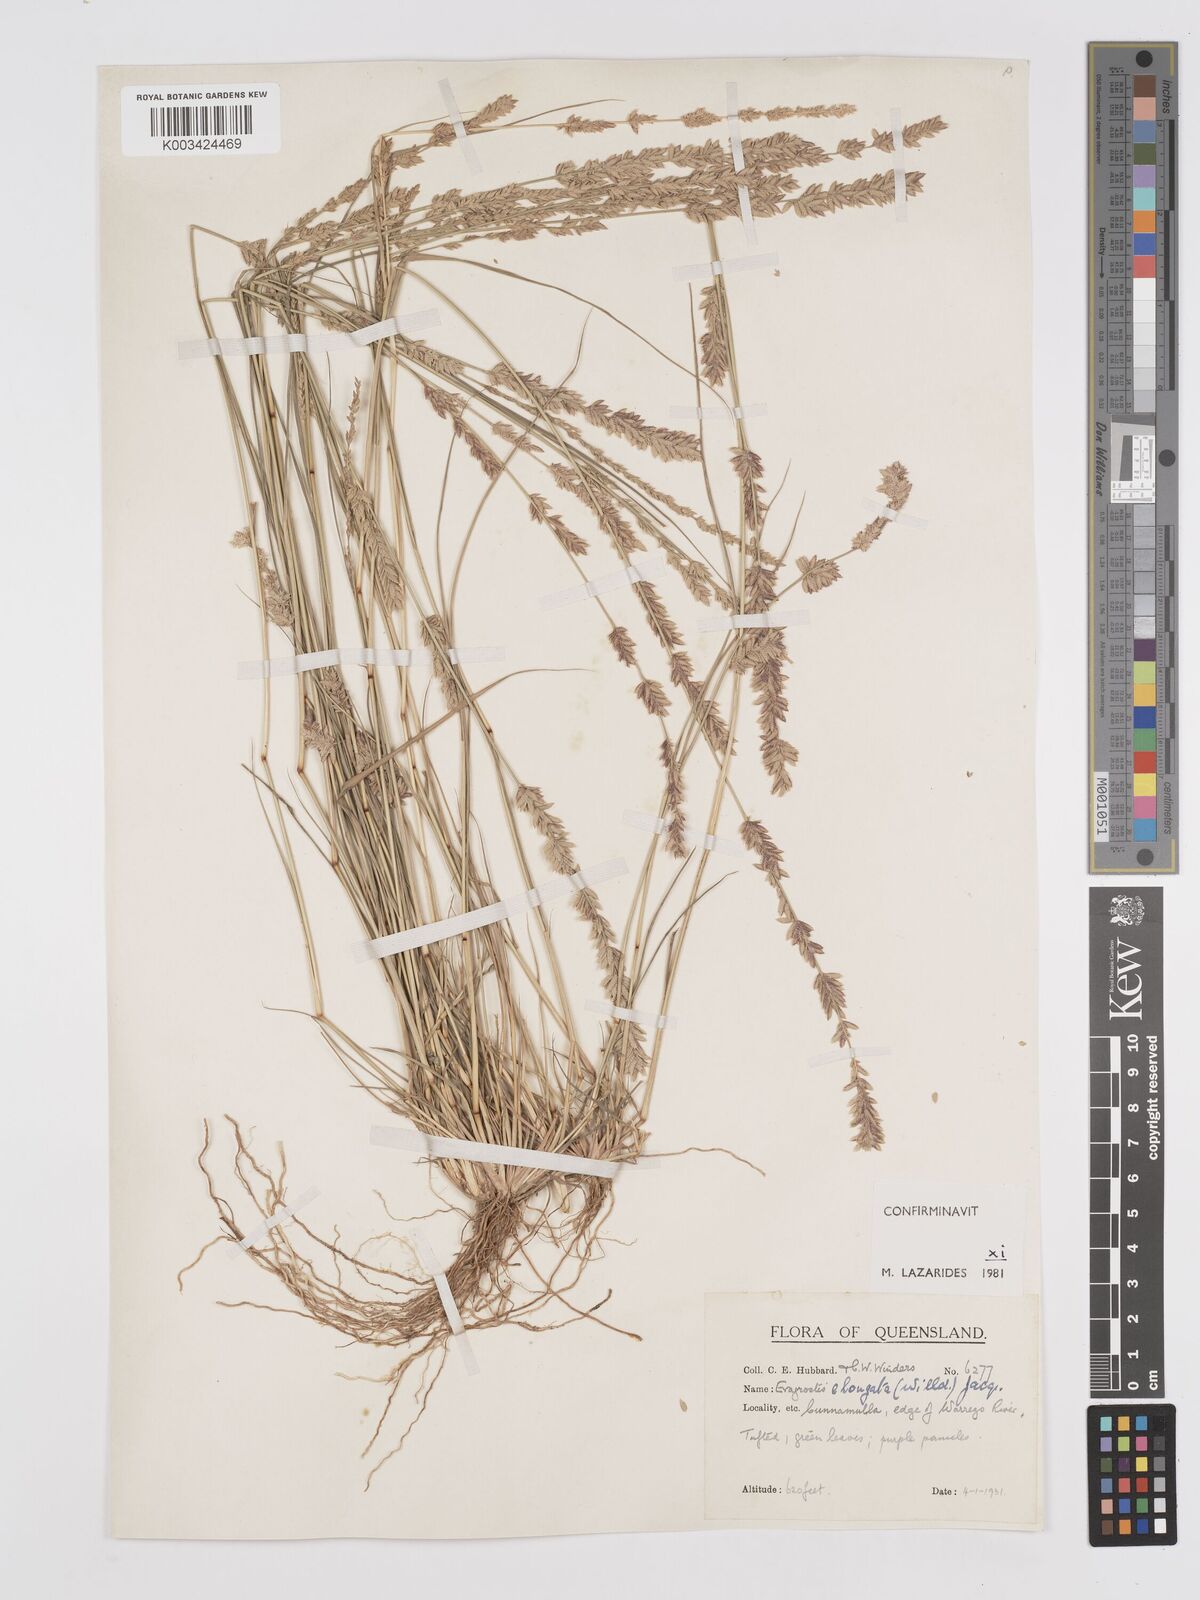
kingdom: Plantae
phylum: Tracheophyta
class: Liliopsida
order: Poales
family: Poaceae
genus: Eragrostis
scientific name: Eragrostis elongata
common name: Long lovegrass
